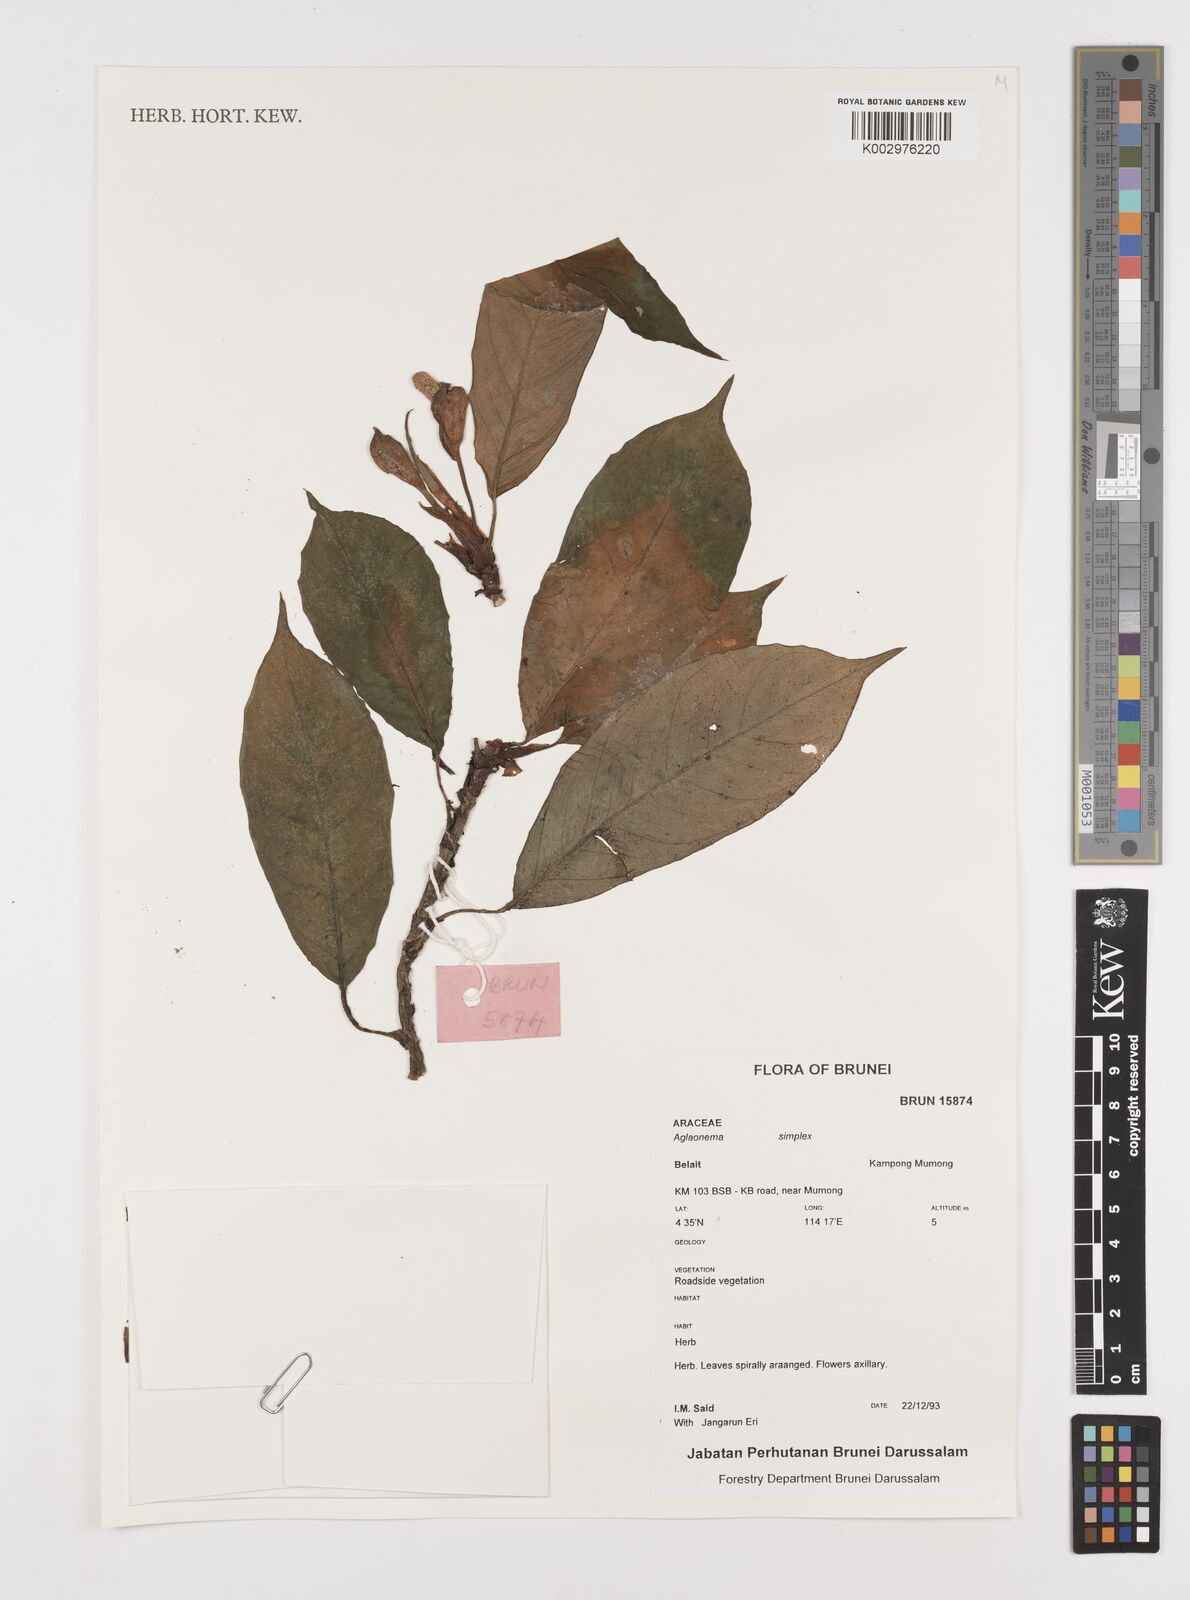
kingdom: Plantae
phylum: Tracheophyta
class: Liliopsida
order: Alismatales
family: Araceae
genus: Aglaonema
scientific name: Aglaonema simplex
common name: Malayan-sword
